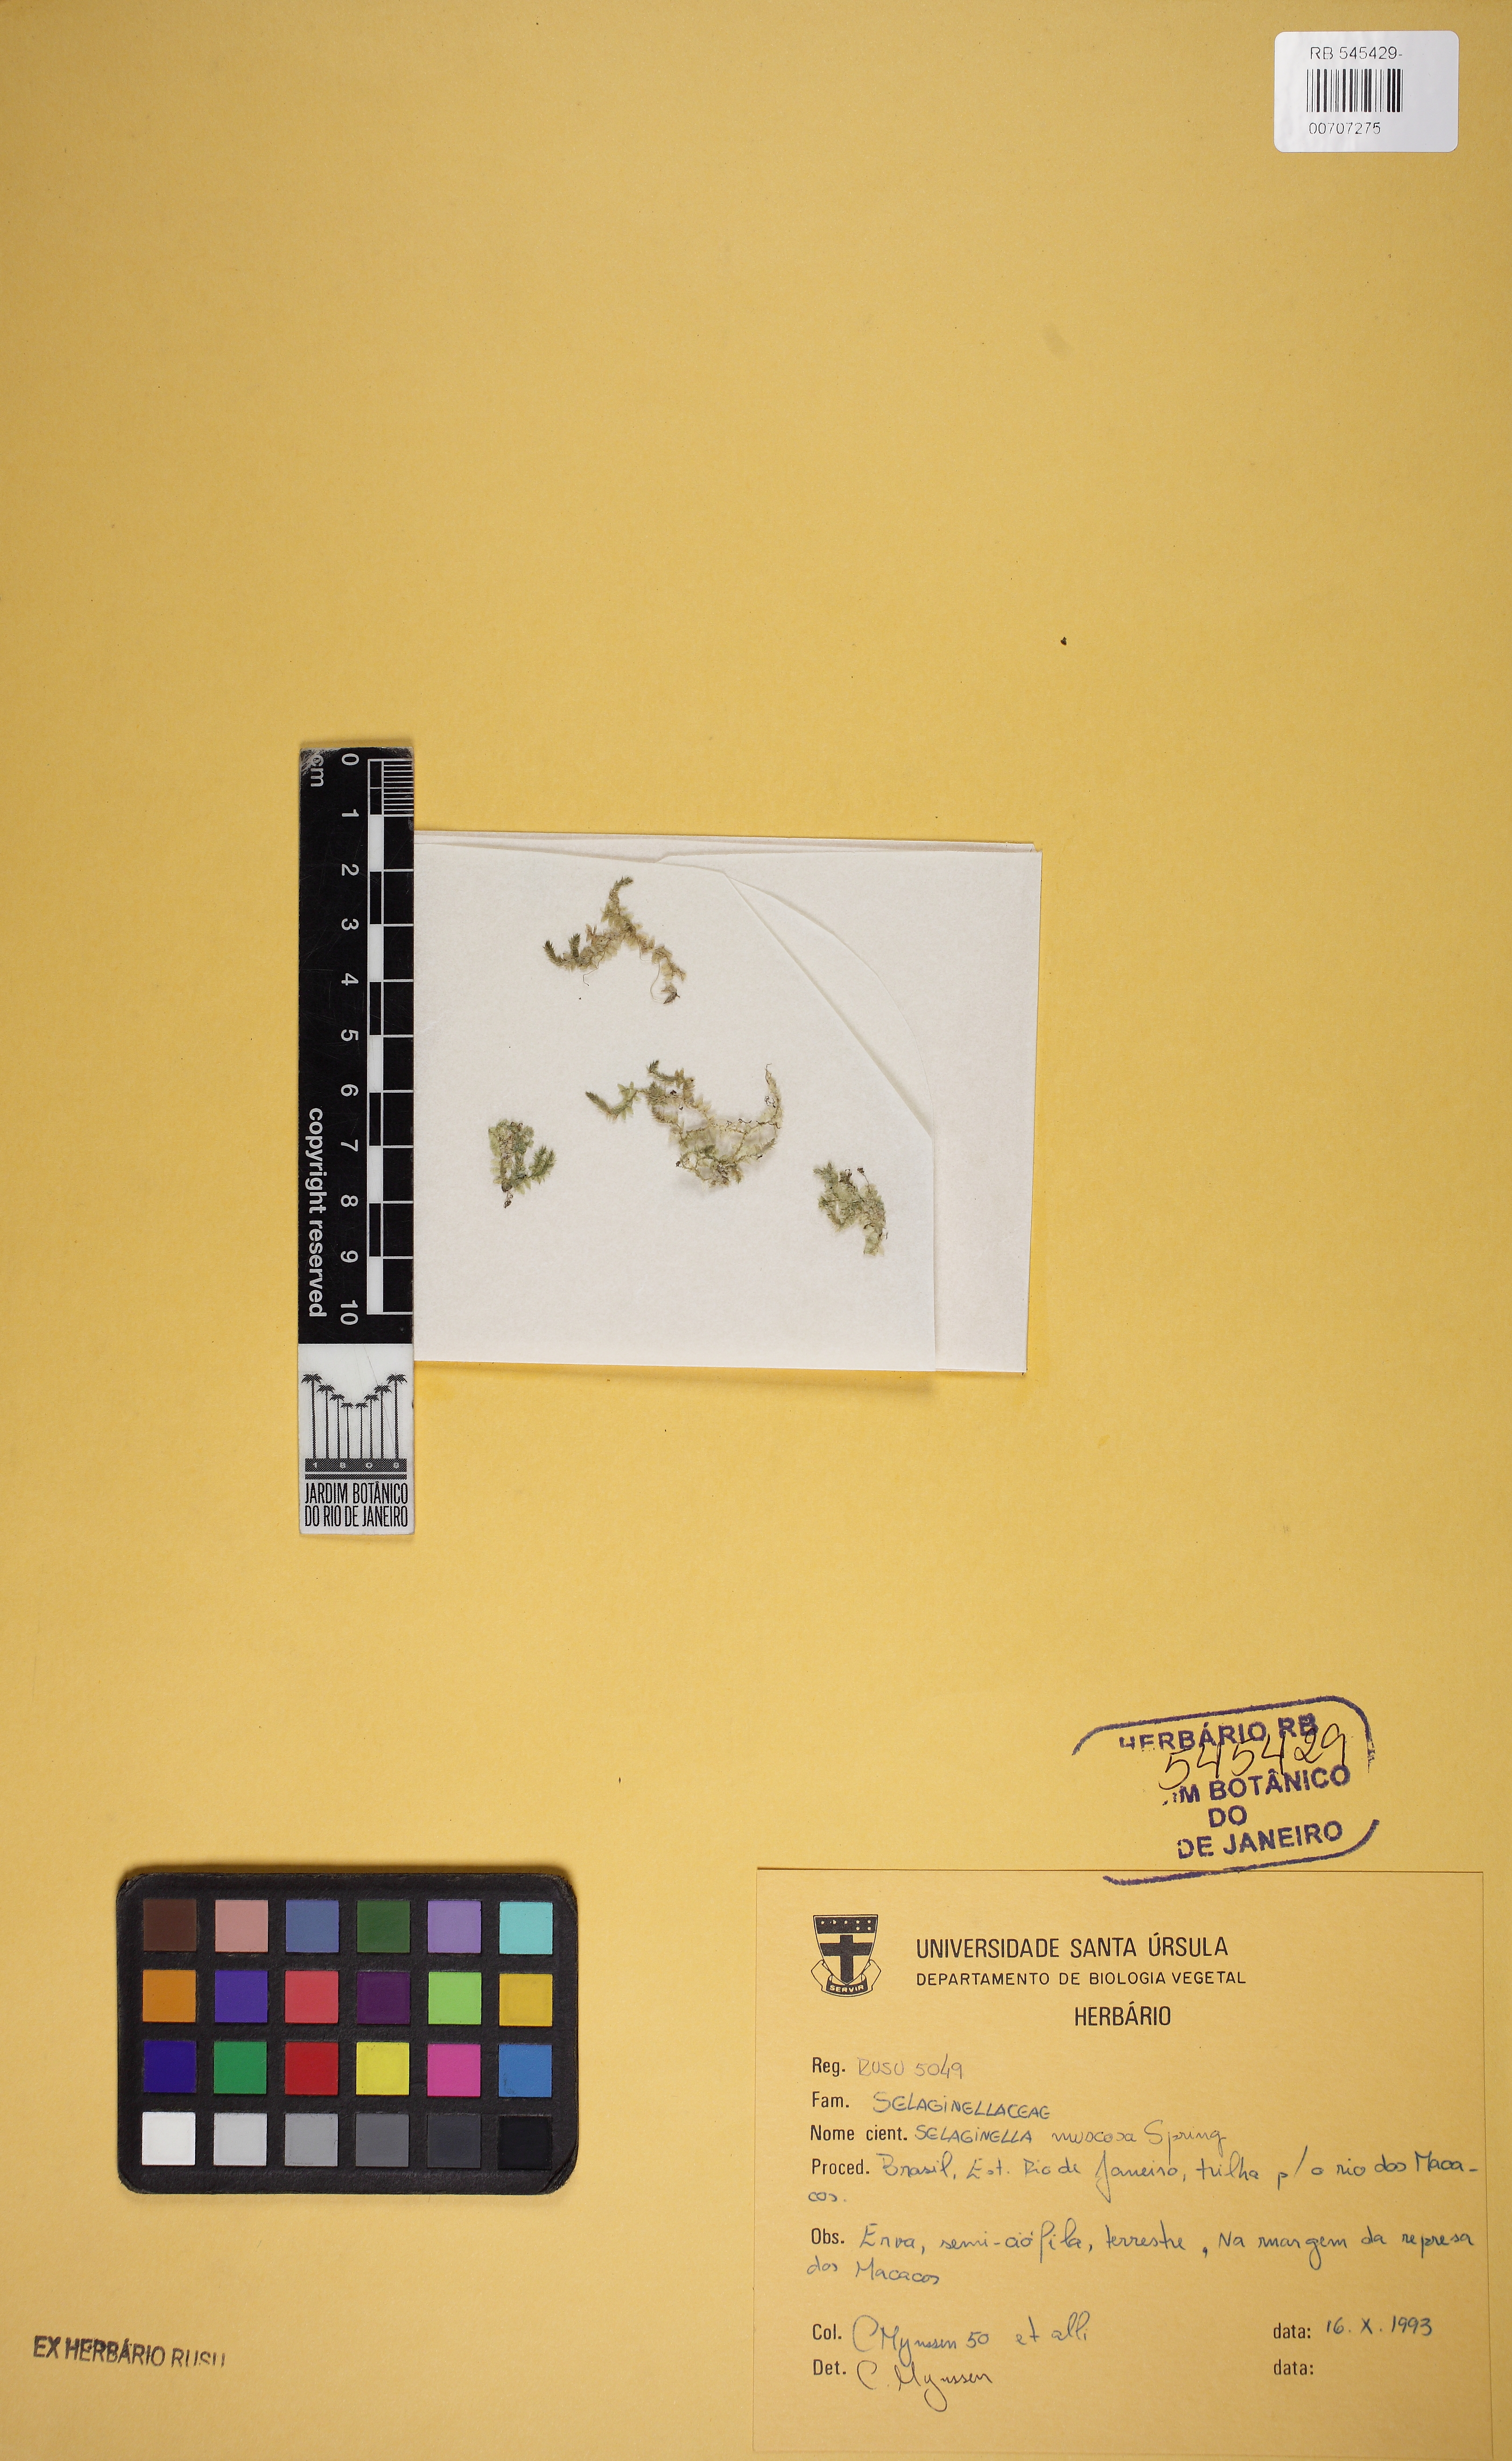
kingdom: Plantae
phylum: Tracheophyta
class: Lycopodiopsida
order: Selaginellales
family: Selaginellaceae
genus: Selaginella
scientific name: Selaginella muscosa
